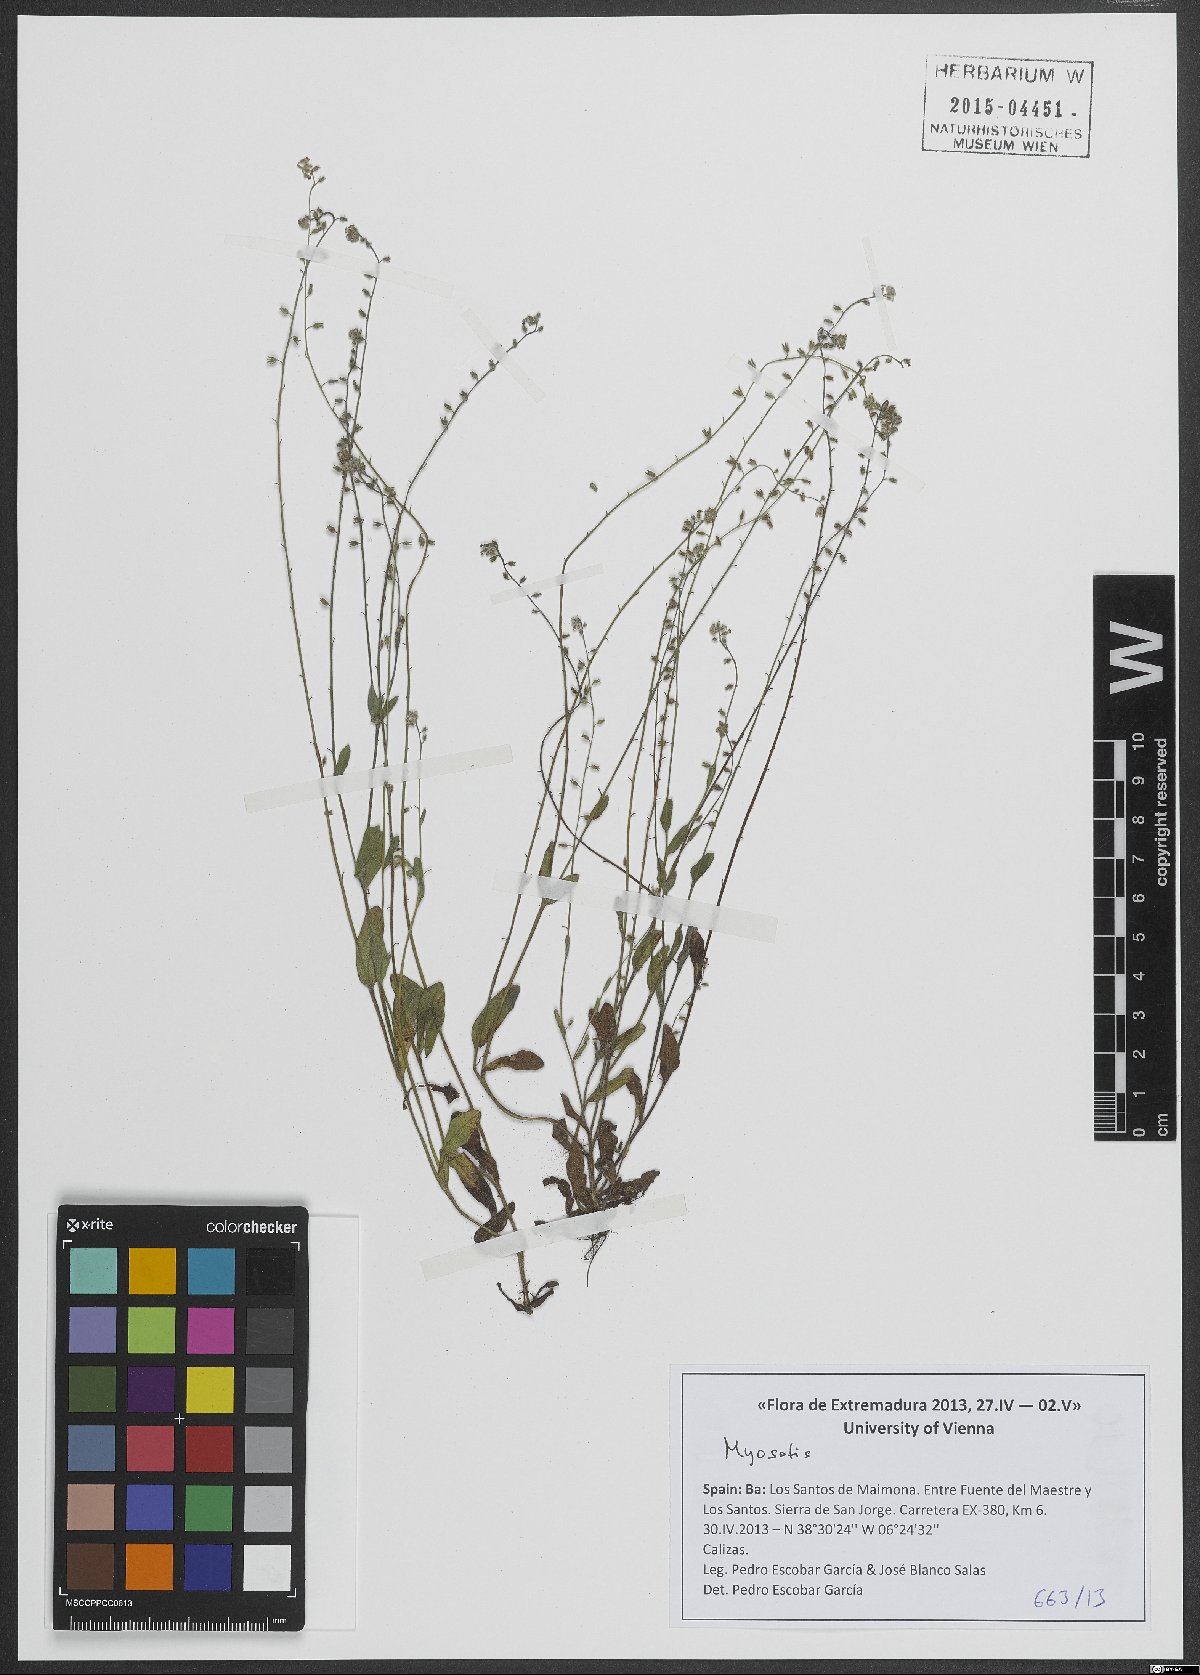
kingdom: Plantae
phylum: Tracheophyta
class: Magnoliopsida
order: Boraginales
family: Boraginaceae
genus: Myosotis
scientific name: Myosotis
